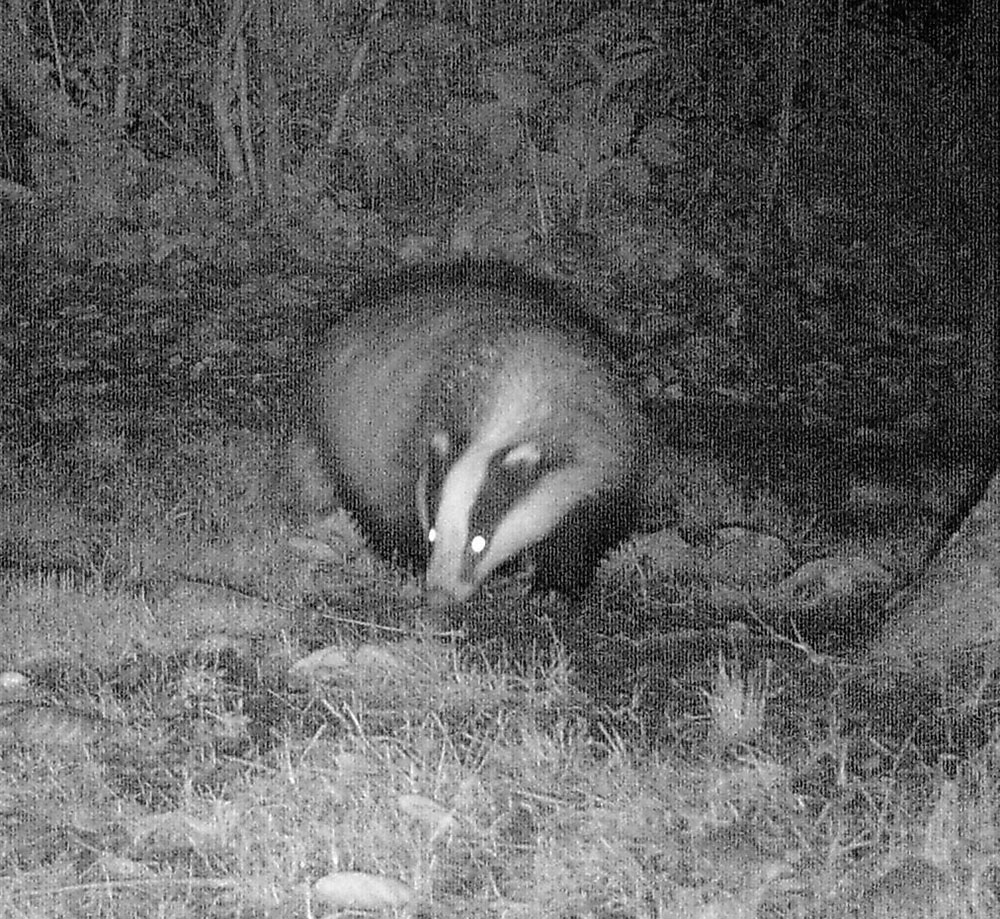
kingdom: Animalia
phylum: Chordata
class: Mammalia
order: Carnivora
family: Mustelidae
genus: Meles
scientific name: Meles meles
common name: Eurasian badger
